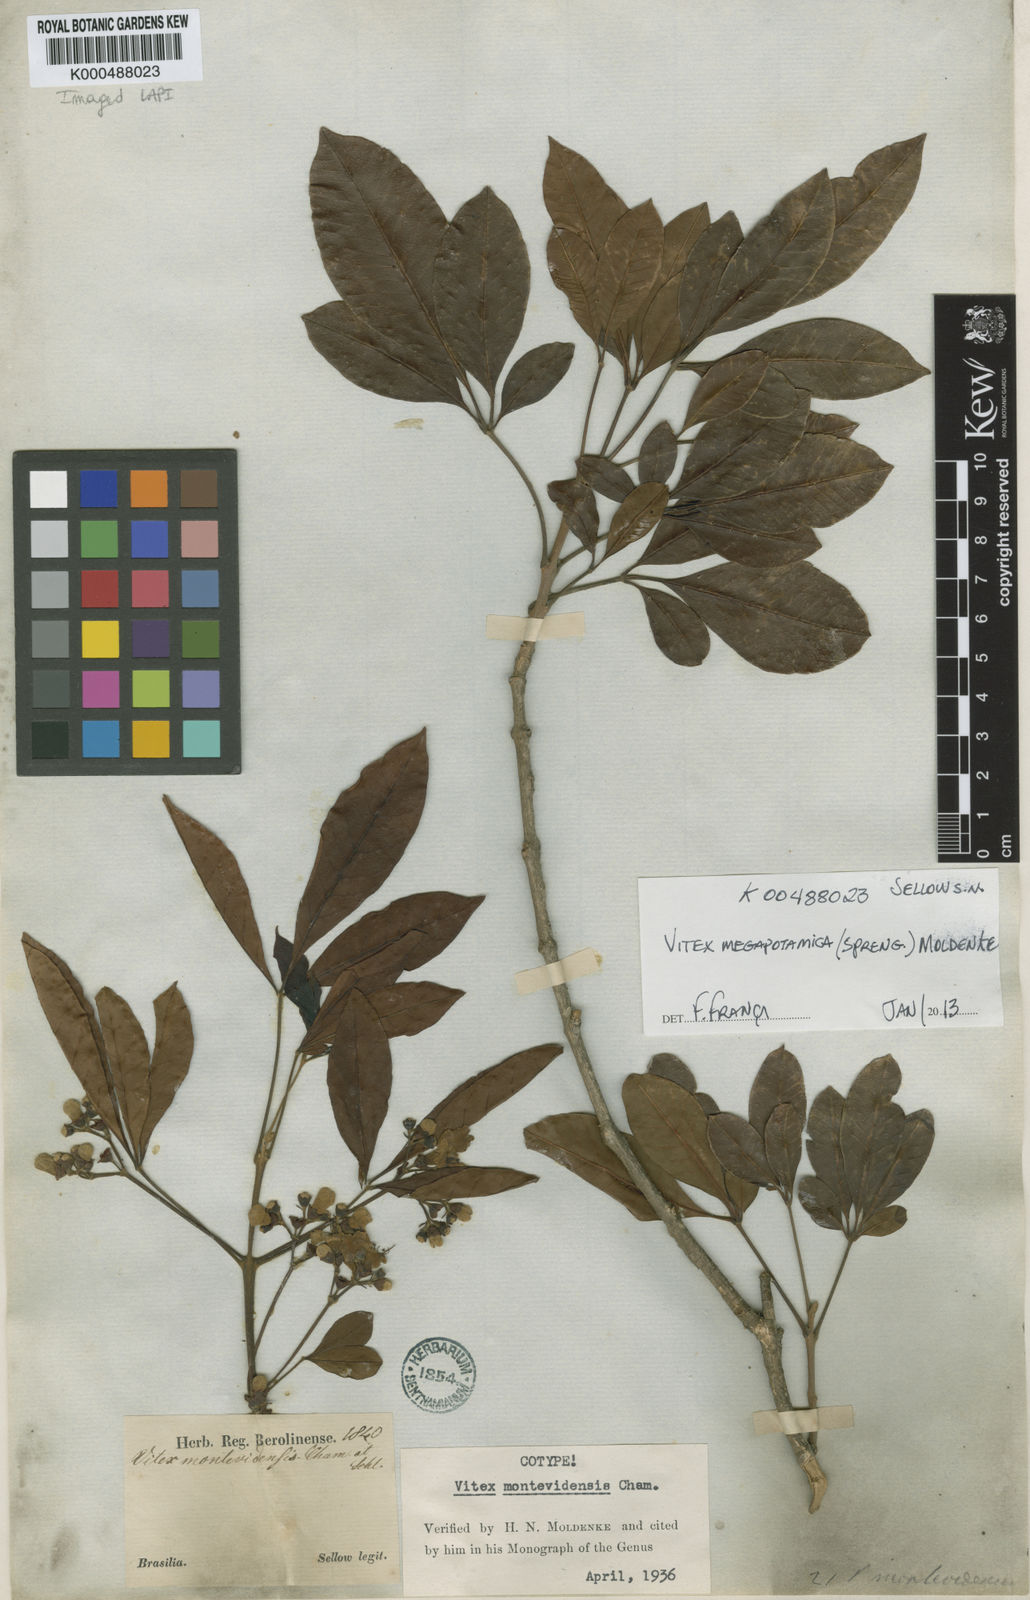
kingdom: Plantae
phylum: Tracheophyta
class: Magnoliopsida
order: Lamiales
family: Lamiaceae
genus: Vitex
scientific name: Vitex megapotamica
